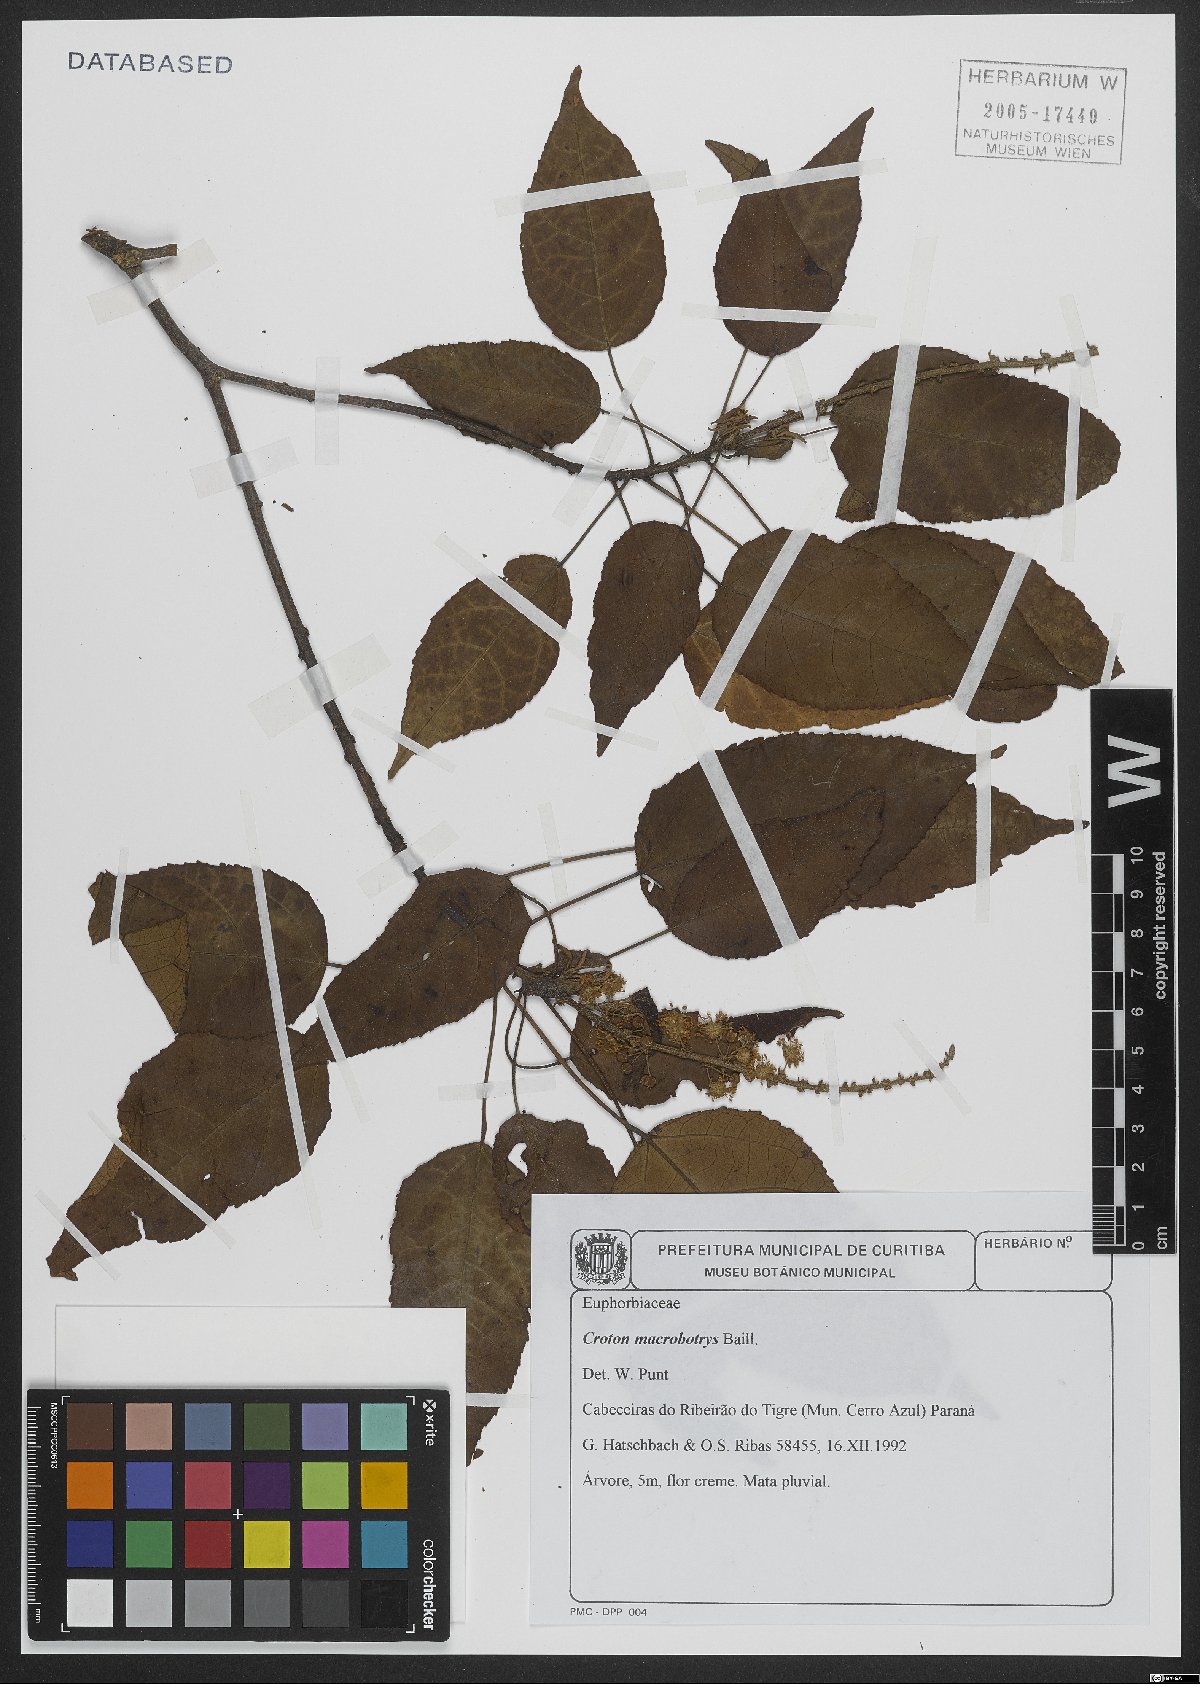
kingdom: Plantae
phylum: Tracheophyta
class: Magnoliopsida
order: Malpighiales
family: Euphorbiaceae
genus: Croton
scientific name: Croton macrobothrys
